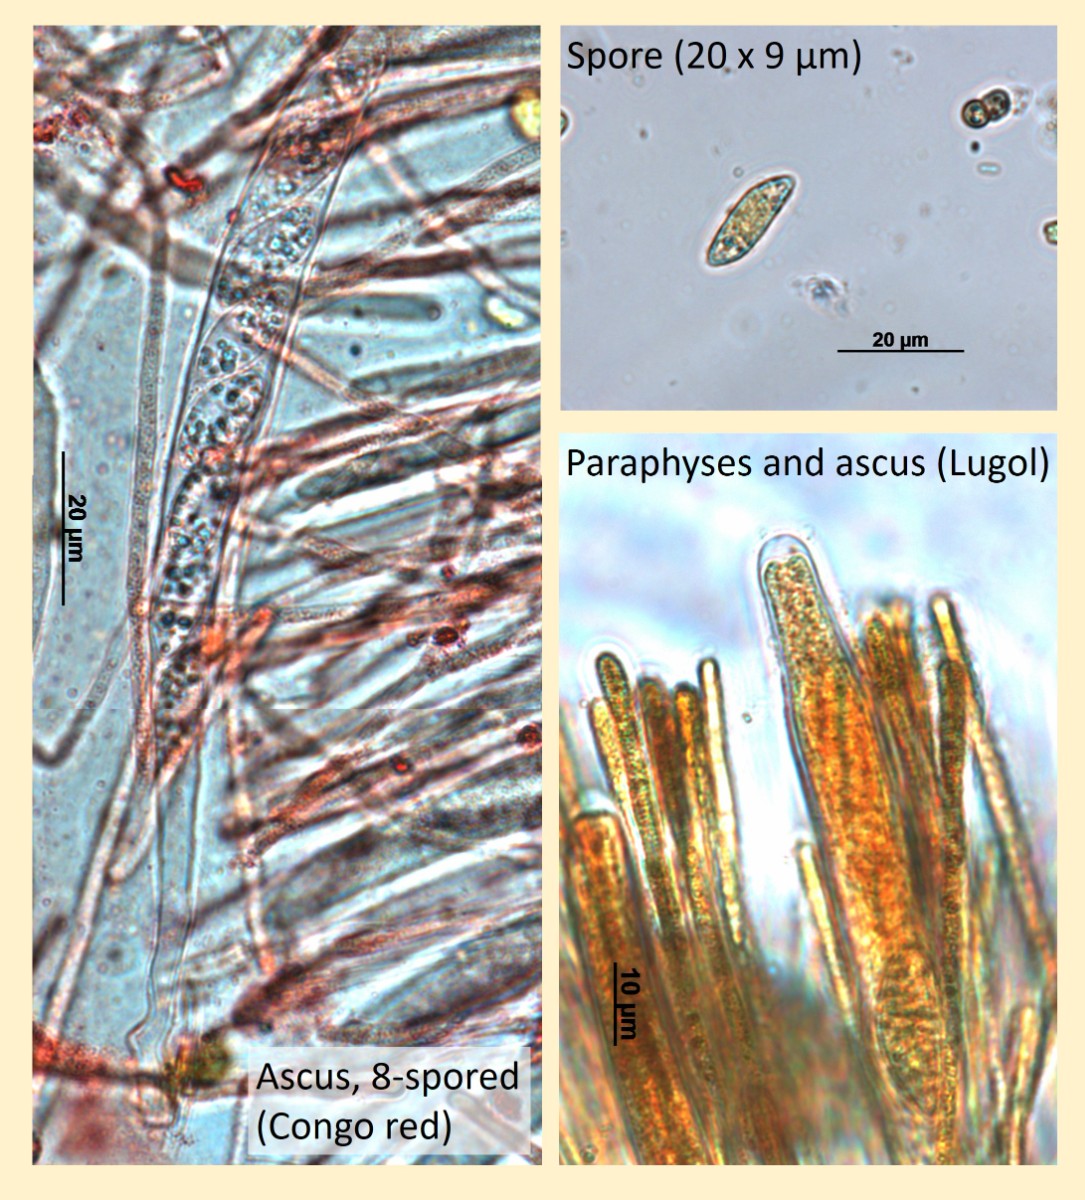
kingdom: Fungi
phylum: Ascomycota
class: Leotiomycetes
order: Helotiales
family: Helotiaceae
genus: Bryoscyphus
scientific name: Bryoscyphus dicrani
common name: bladmos-stilkskive
